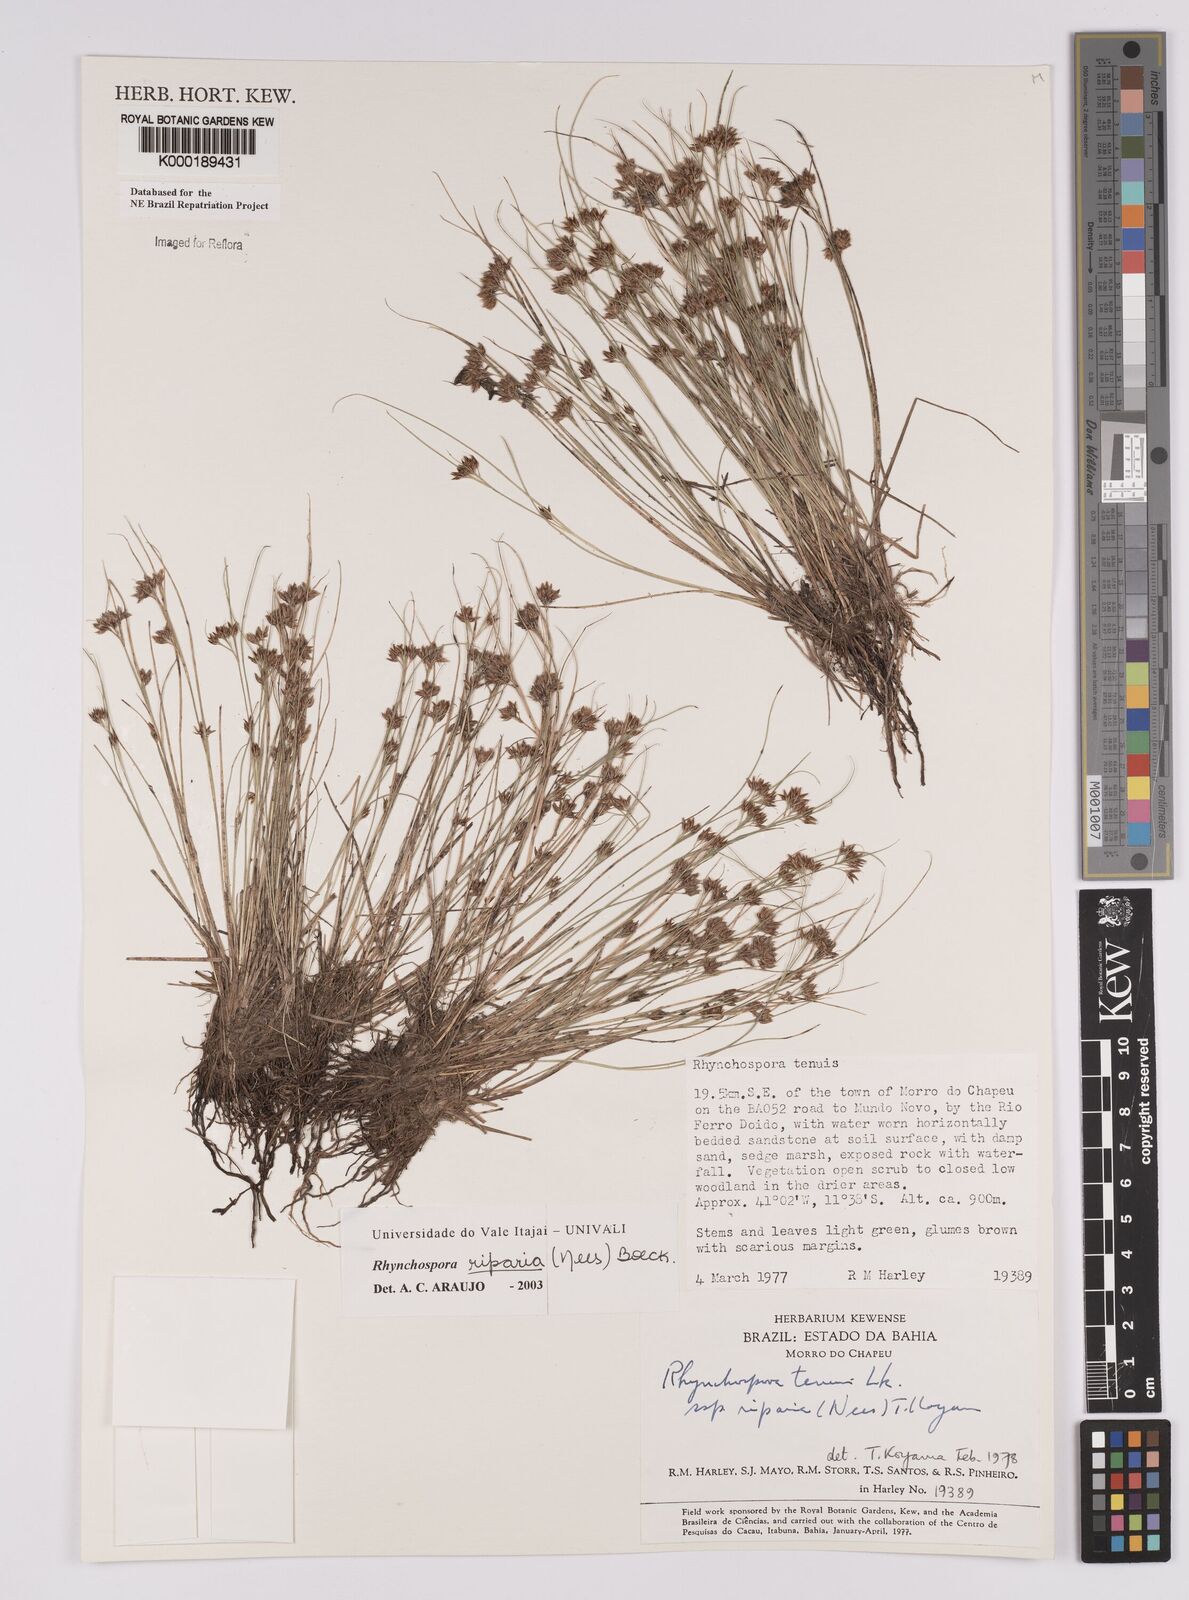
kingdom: Plantae
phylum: Tracheophyta
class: Liliopsida
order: Poales
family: Cyperaceae
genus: Rhynchospora
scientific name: Rhynchospora riparia
